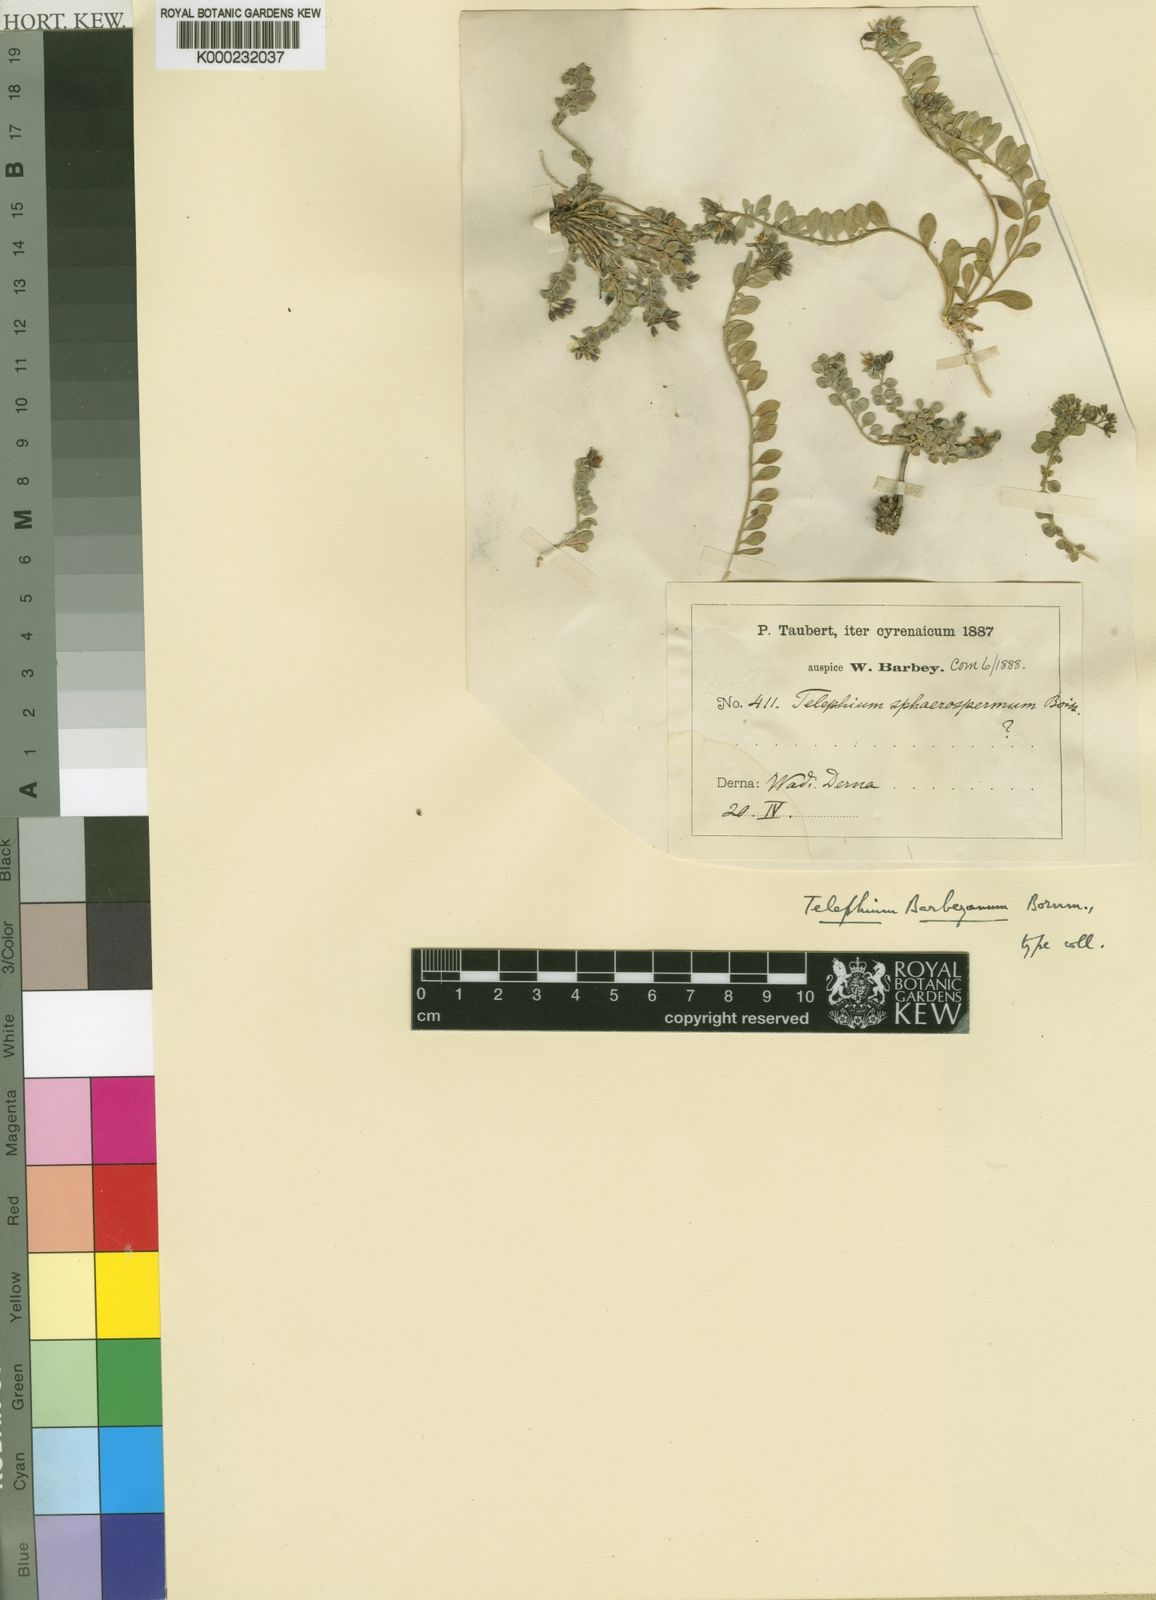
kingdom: Plantae
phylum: Tracheophyta
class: Magnoliopsida
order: Caryophyllales
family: Caryophyllaceae
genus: Telephium
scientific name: Telephium barbeyanum
